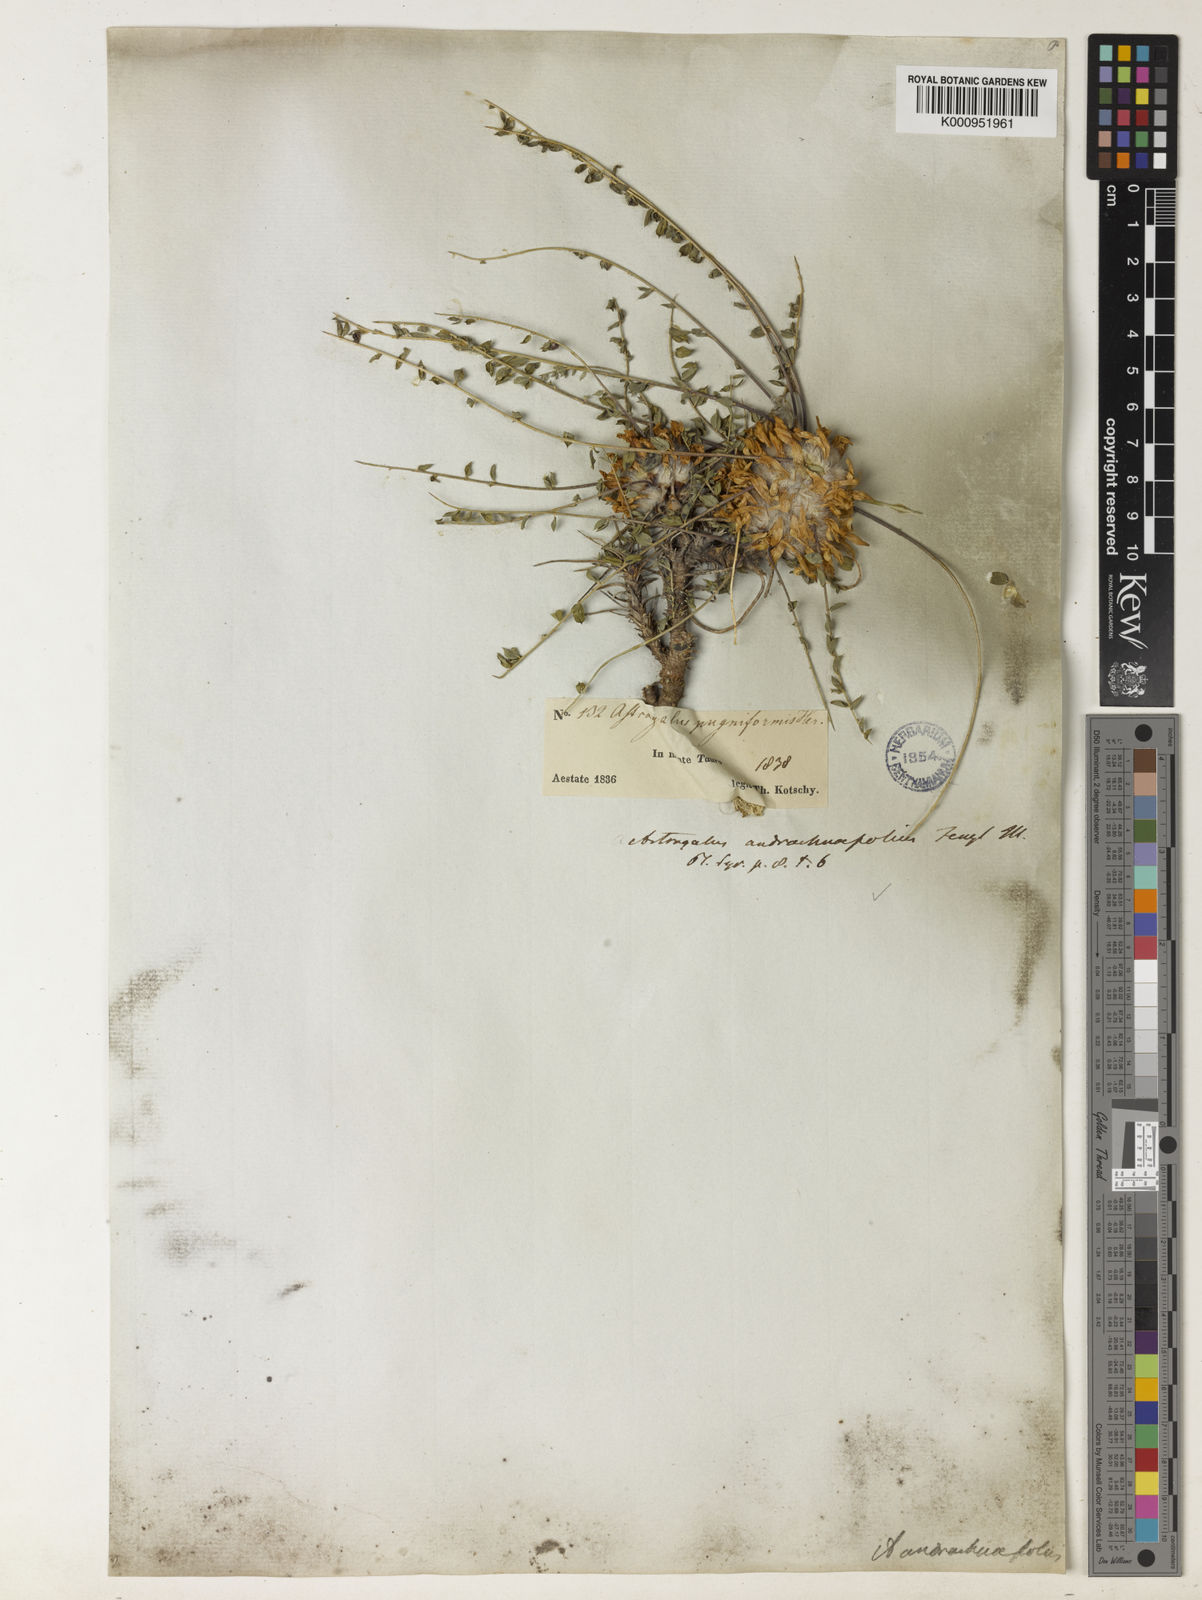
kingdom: Plantae
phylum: Tracheophyta
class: Magnoliopsida
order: Fabales
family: Fabaceae
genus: Astragalus
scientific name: Astragalus cephalotes
